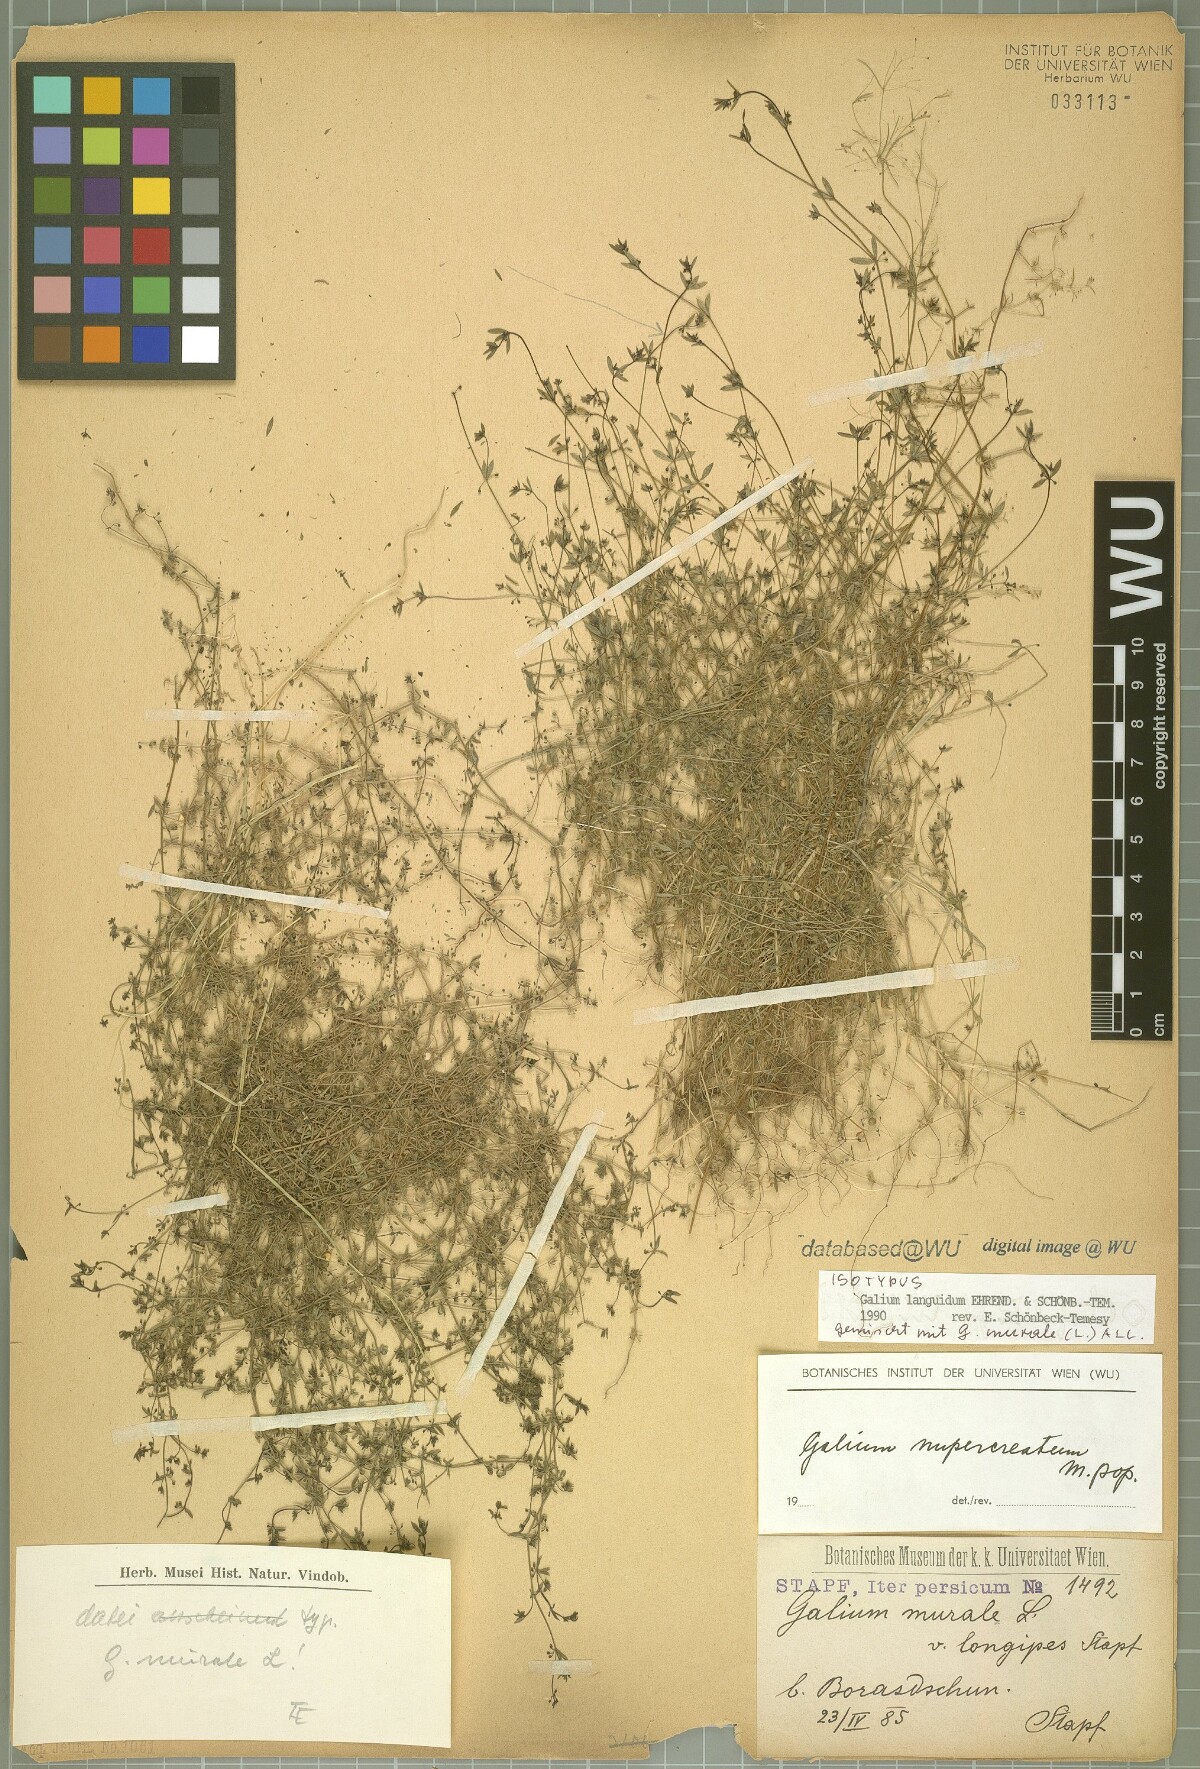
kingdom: Plantae
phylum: Tracheophyta
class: Magnoliopsida
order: Gentianales
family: Rubiaceae
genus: Galium
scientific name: Galium nupercreatum
